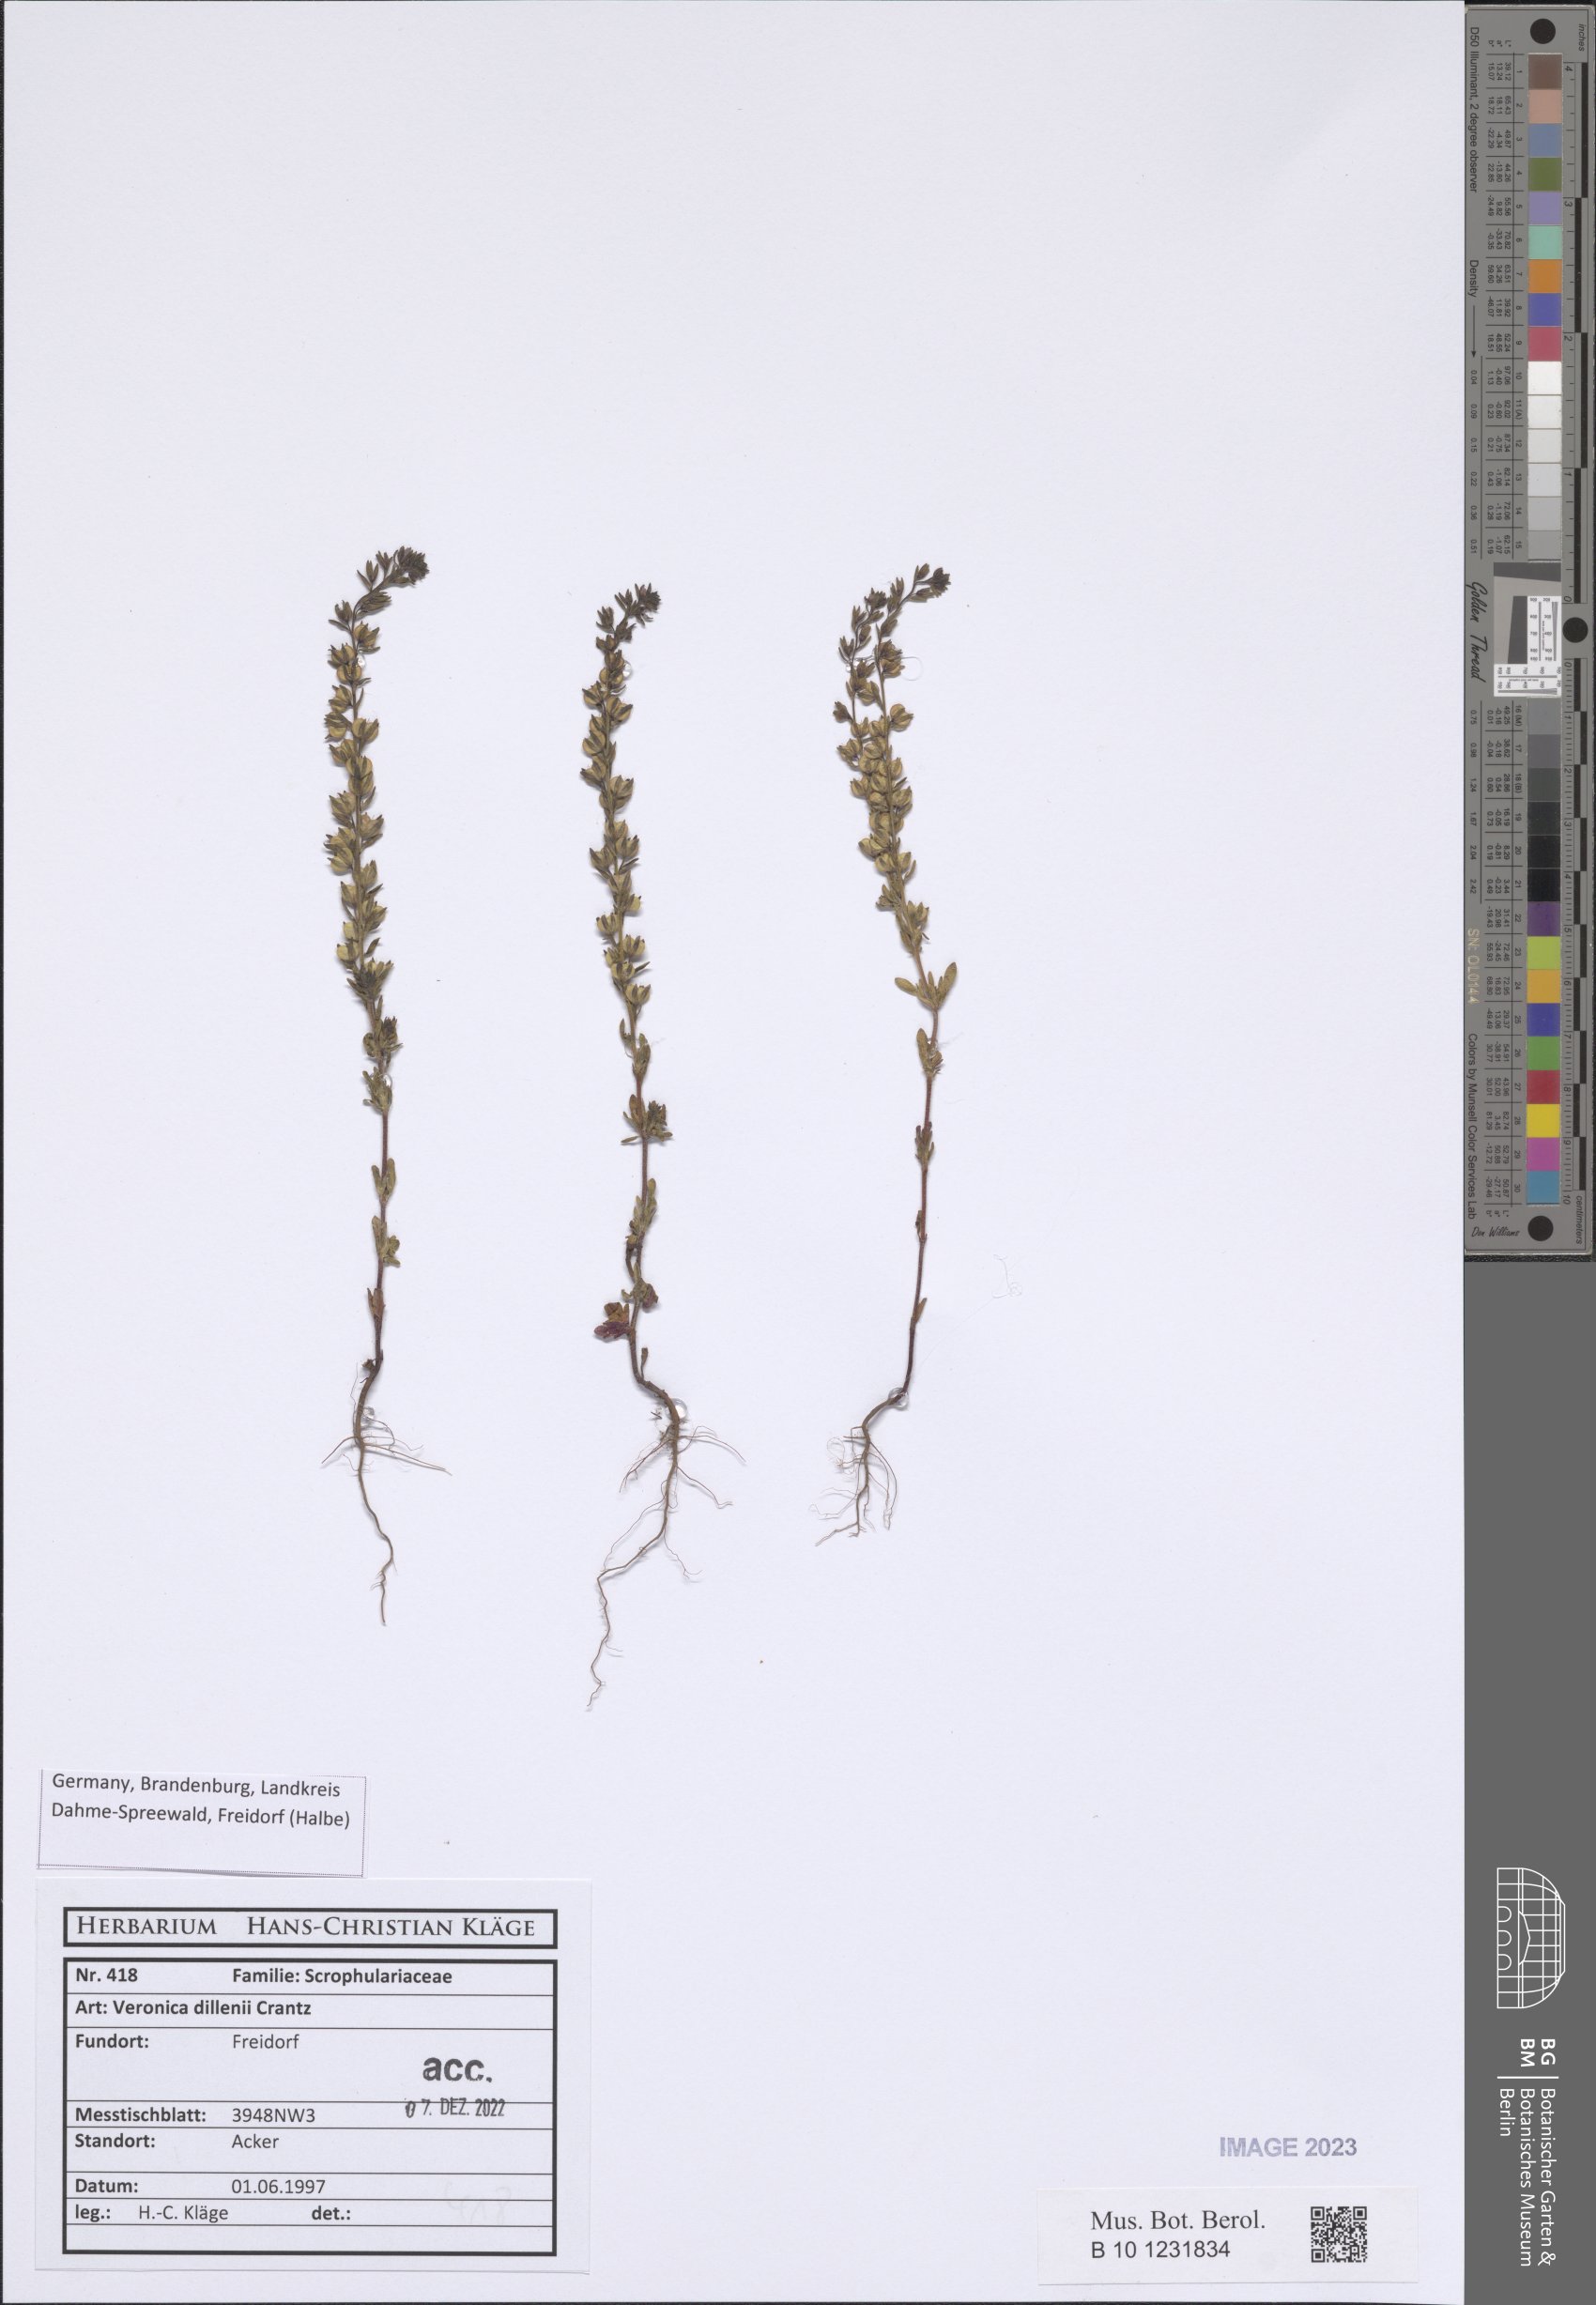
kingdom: Plantae
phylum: Tracheophyta
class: Magnoliopsida
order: Lamiales
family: Plantaginaceae
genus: Veronica
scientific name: Veronica dillenii
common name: Dillenius' speedwell
